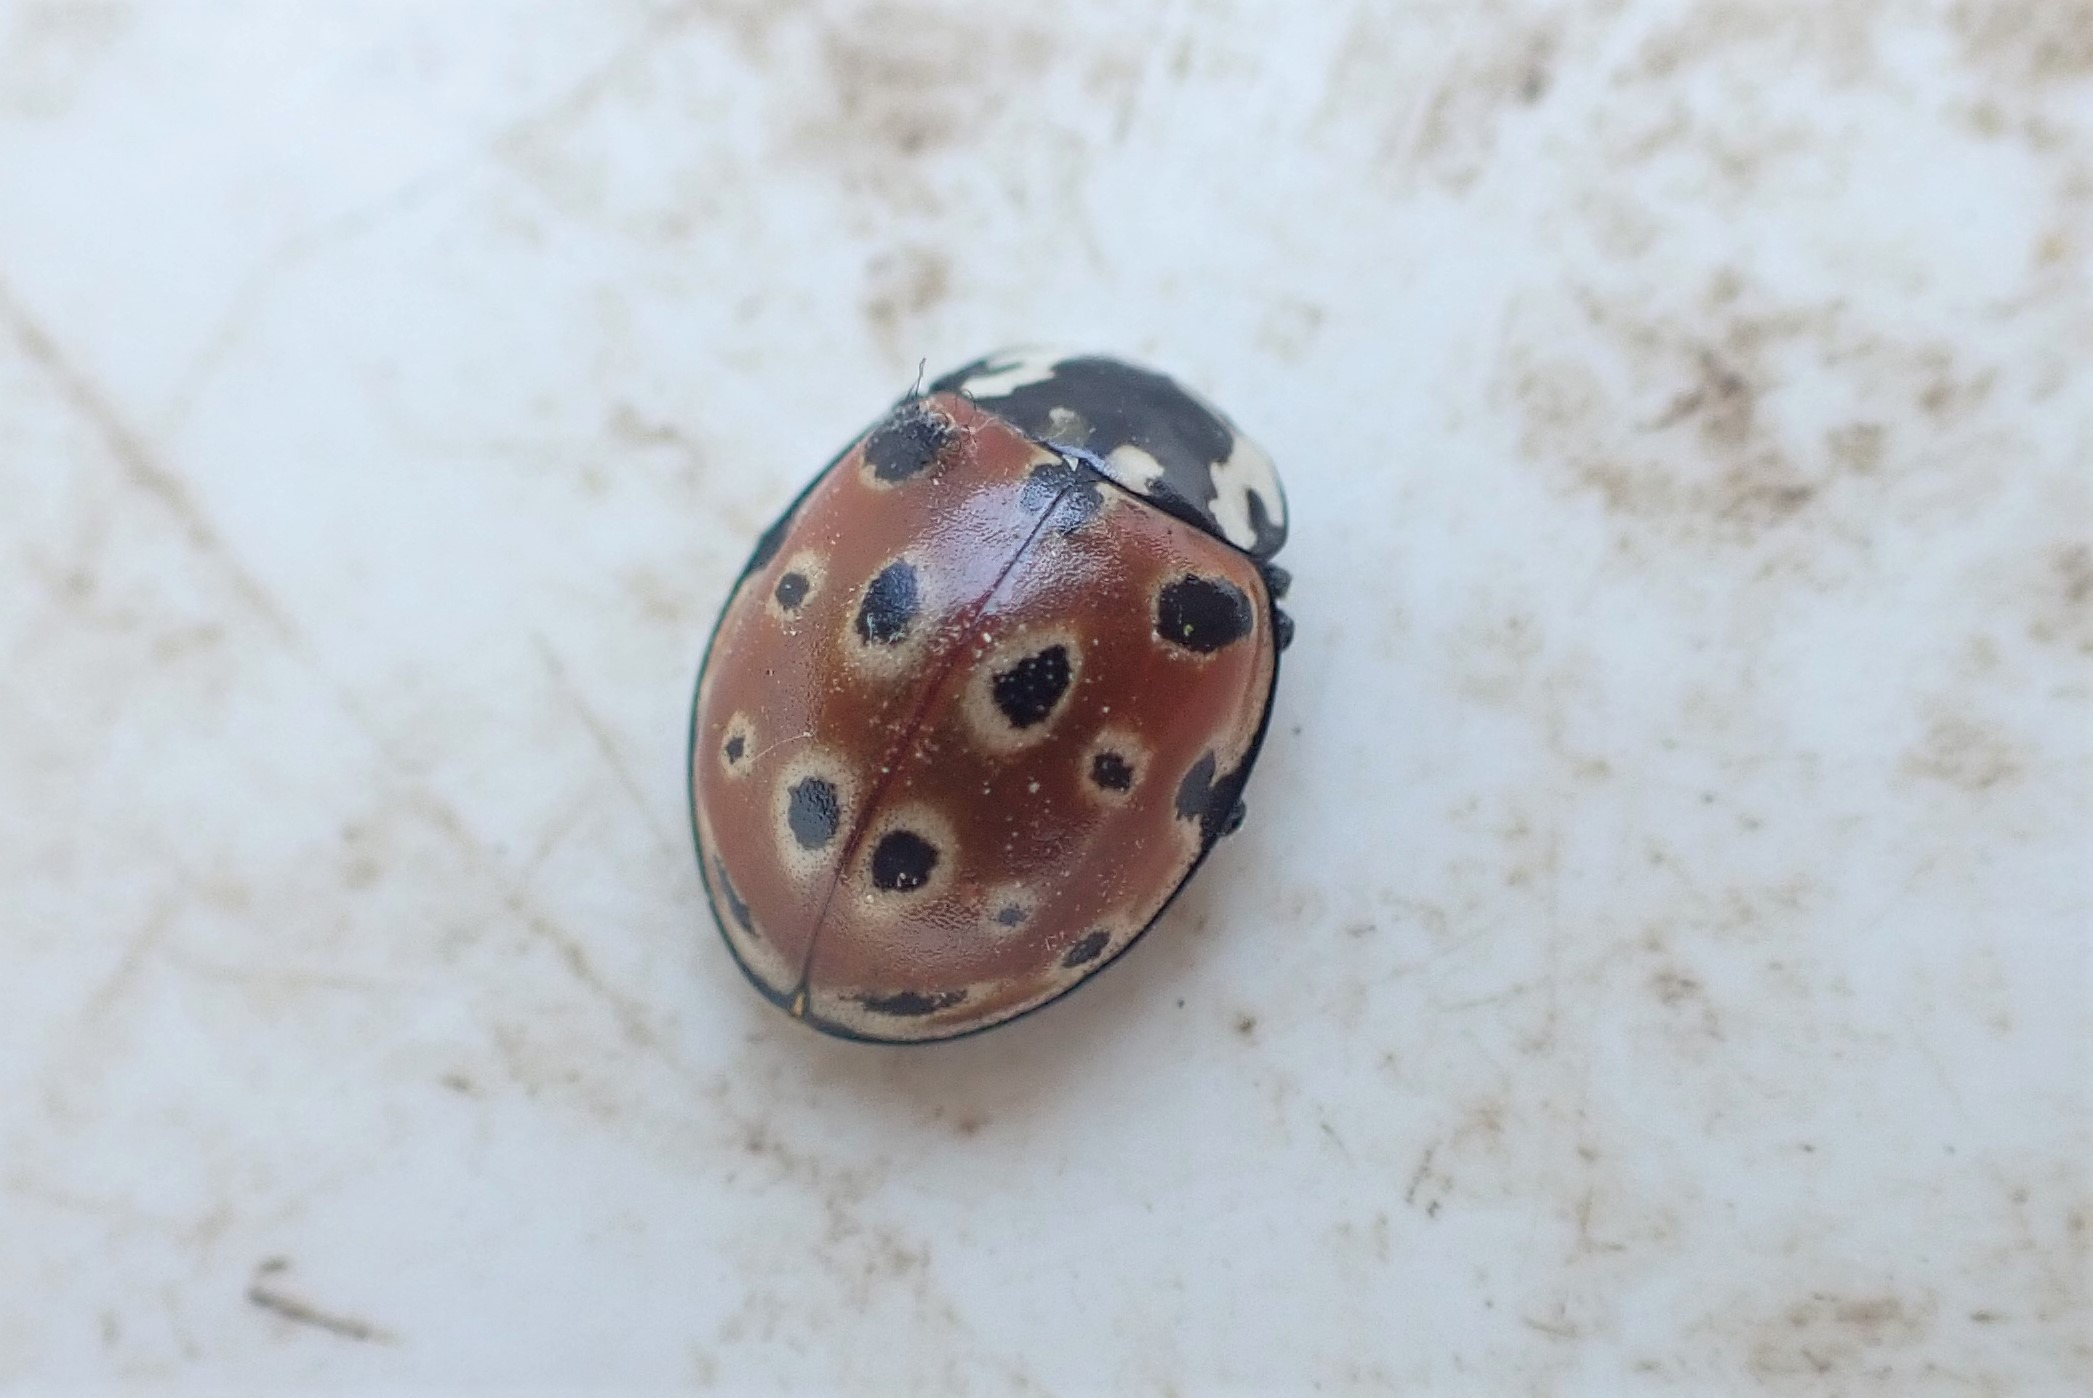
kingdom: Animalia
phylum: Arthropoda
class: Insecta
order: Coleoptera
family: Coccinellidae
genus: Anatis
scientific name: Anatis ocellata
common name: Øjeplettet mariehøne
